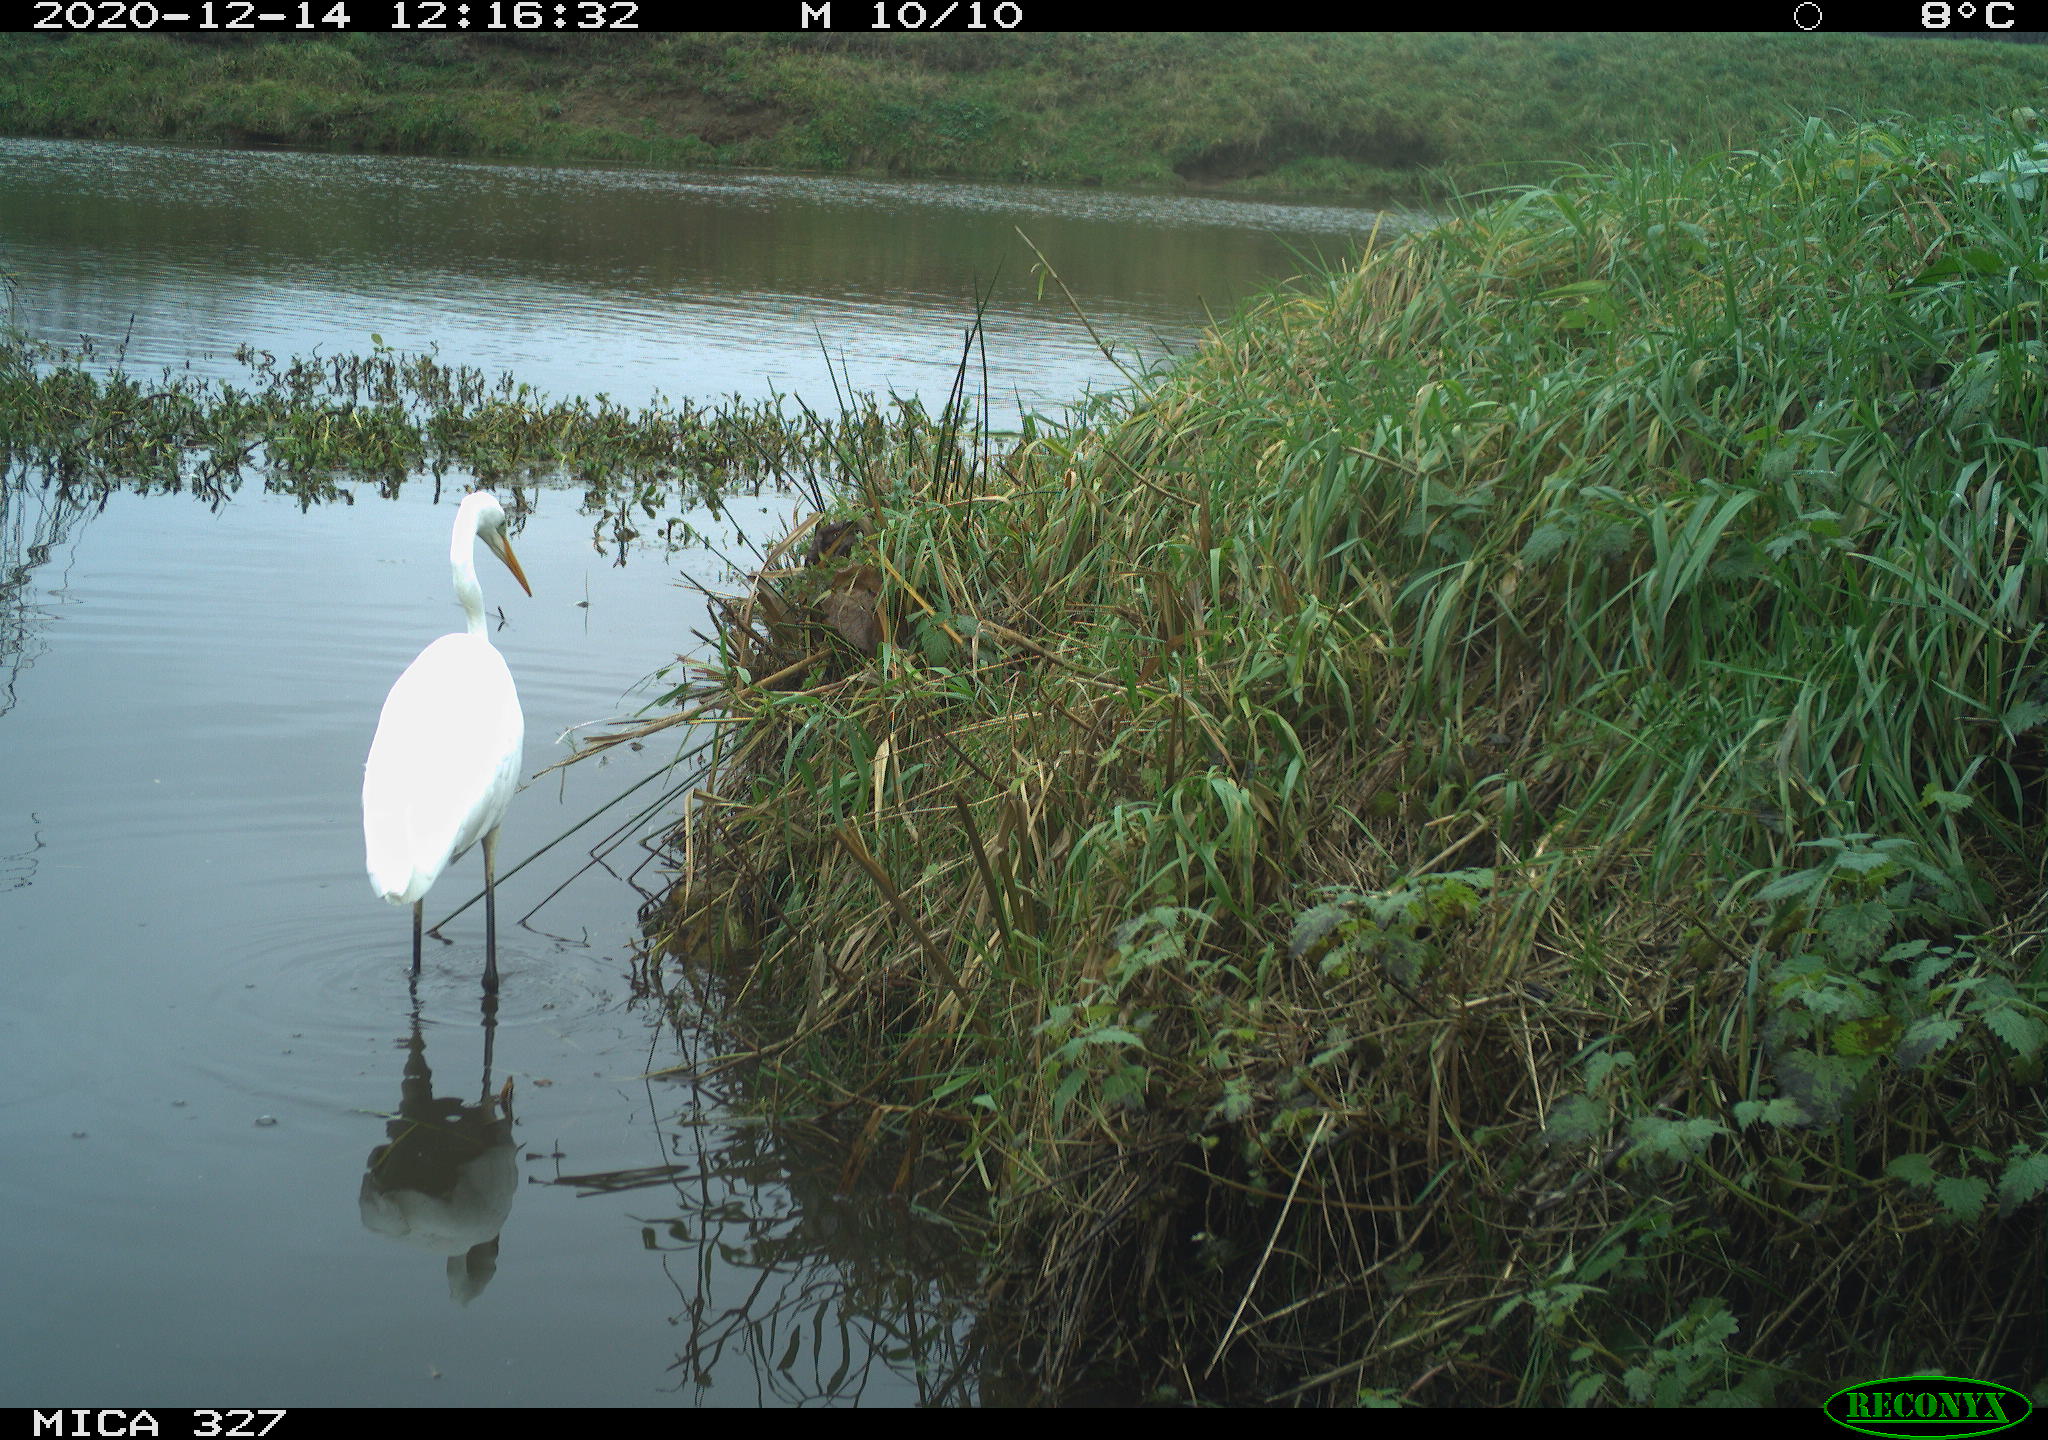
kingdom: Animalia
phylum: Chordata
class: Aves
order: Pelecaniformes
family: Ardeidae
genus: Ardea
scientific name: Ardea alba
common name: Great egret
